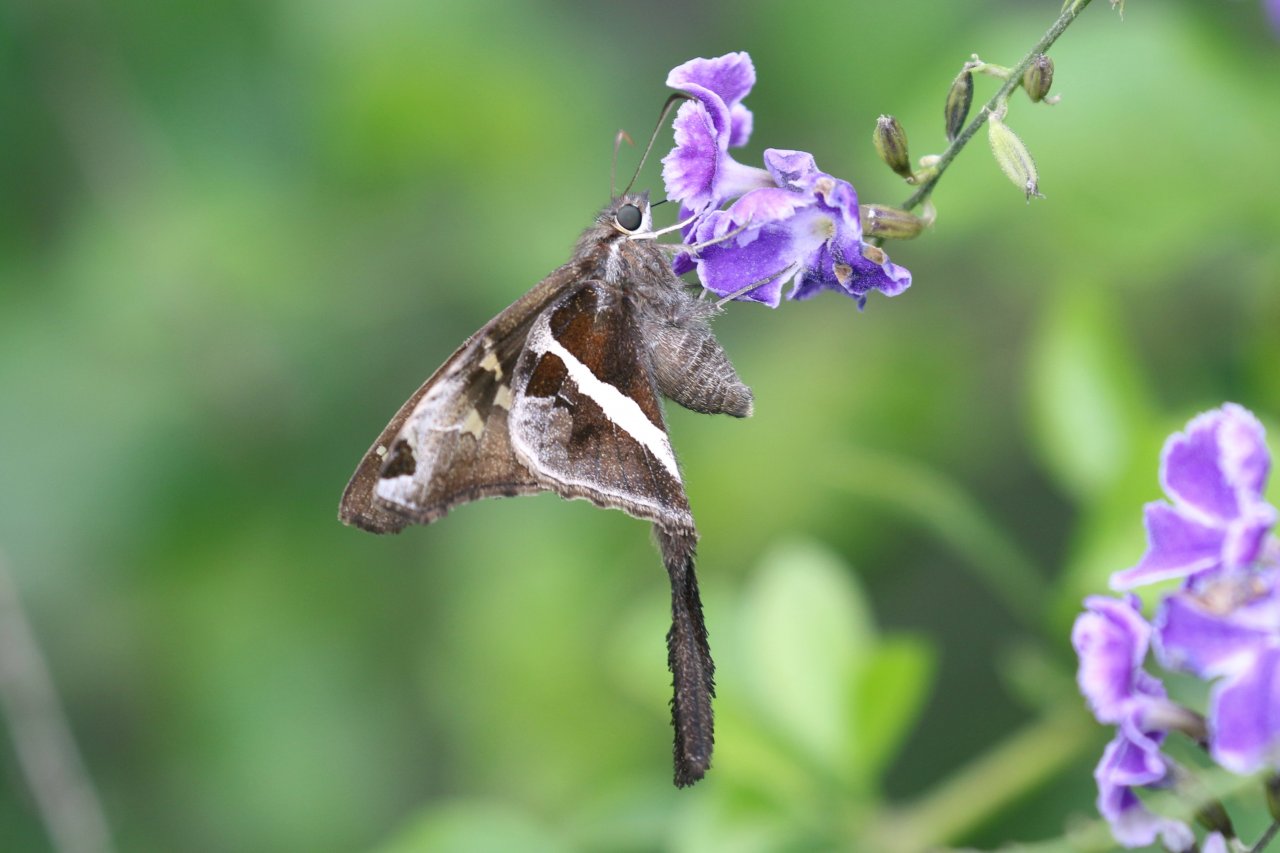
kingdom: Animalia
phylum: Arthropoda
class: Insecta
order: Lepidoptera
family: Hesperiidae
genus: Chioides
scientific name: Chioides catillus
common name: White-striped Longtail
